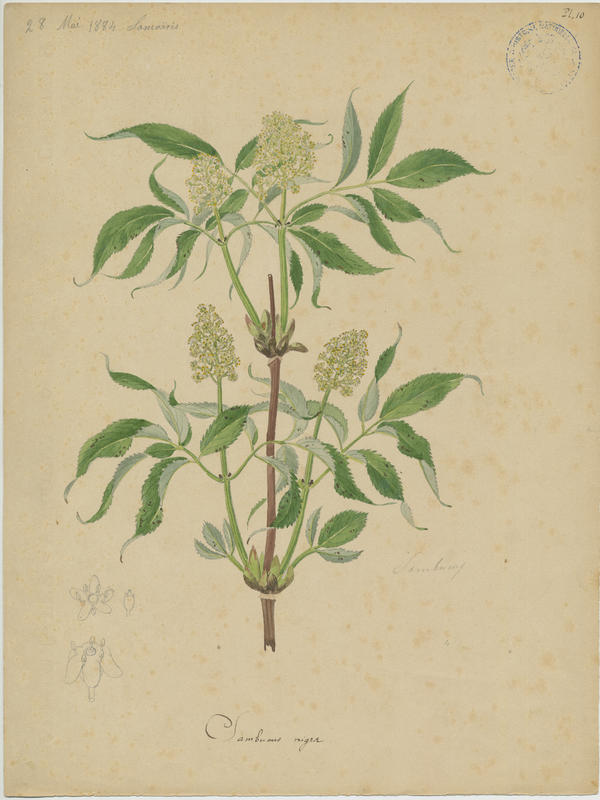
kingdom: Plantae
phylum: Tracheophyta
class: Magnoliopsida
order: Dipsacales
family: Viburnaceae
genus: Sambucus
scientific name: Sambucus nigra
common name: Elder
